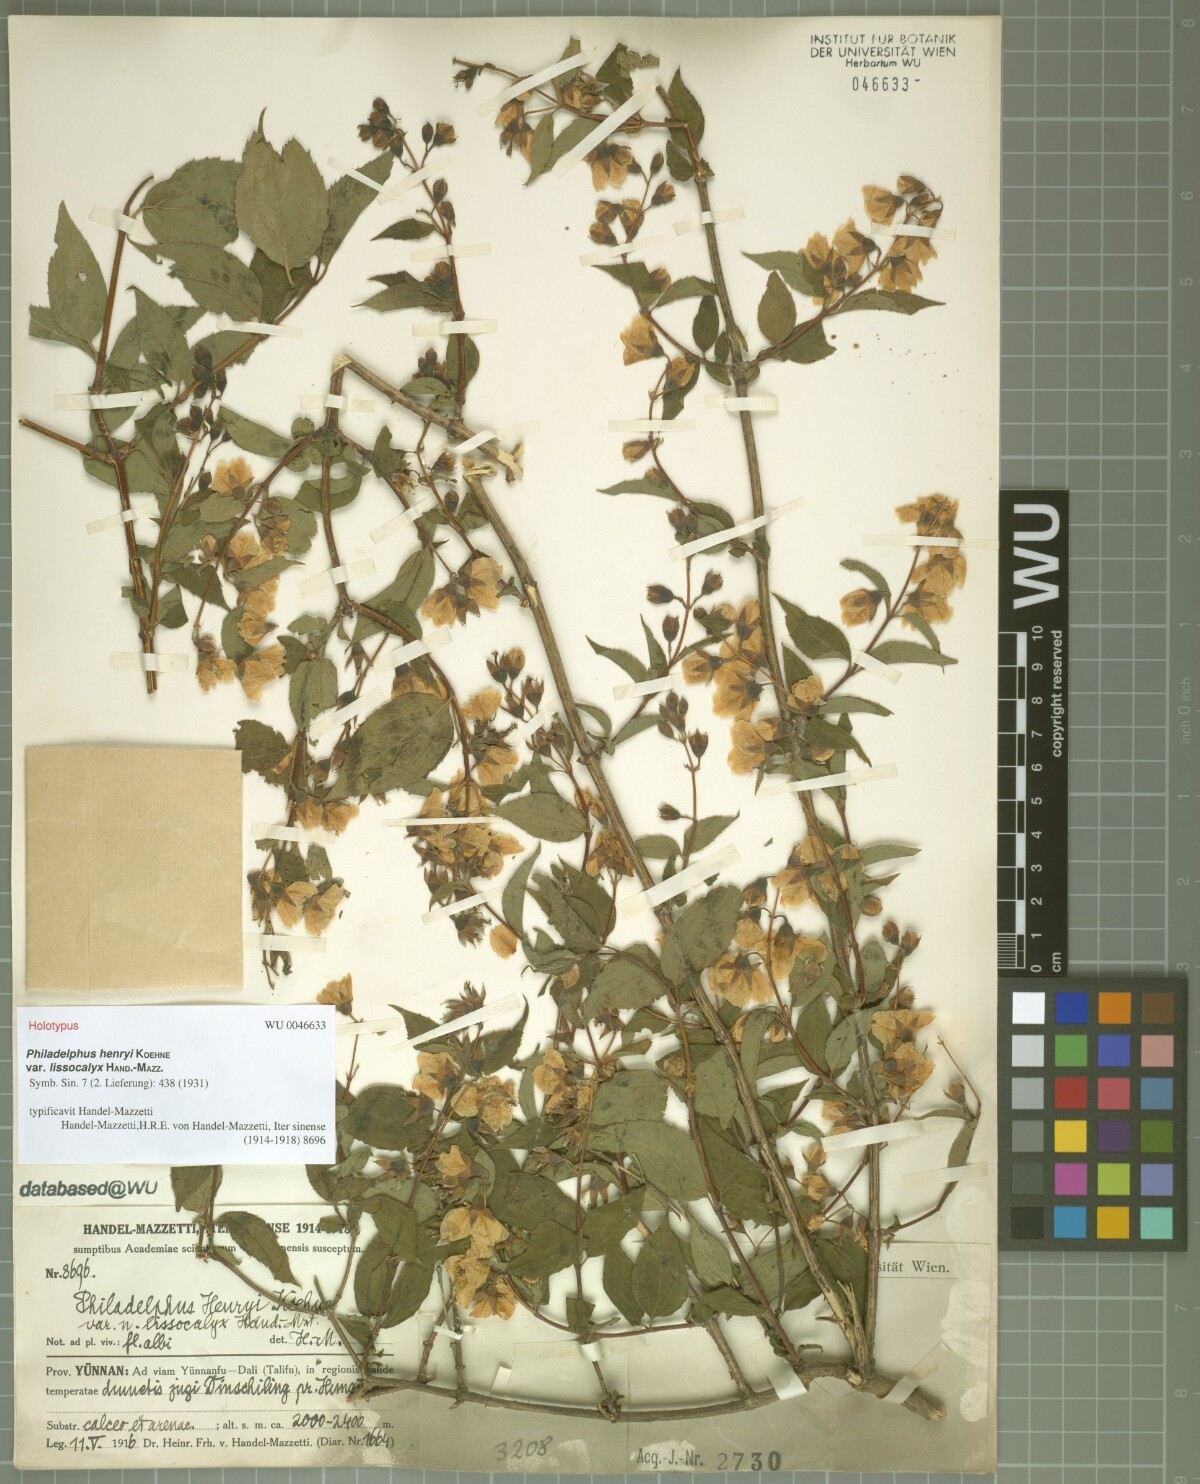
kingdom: Plantae
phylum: Tracheophyta
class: Magnoliopsida
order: Cornales
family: Hydrangeaceae
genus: Philadelphus
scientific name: Philadelphus calvescens
